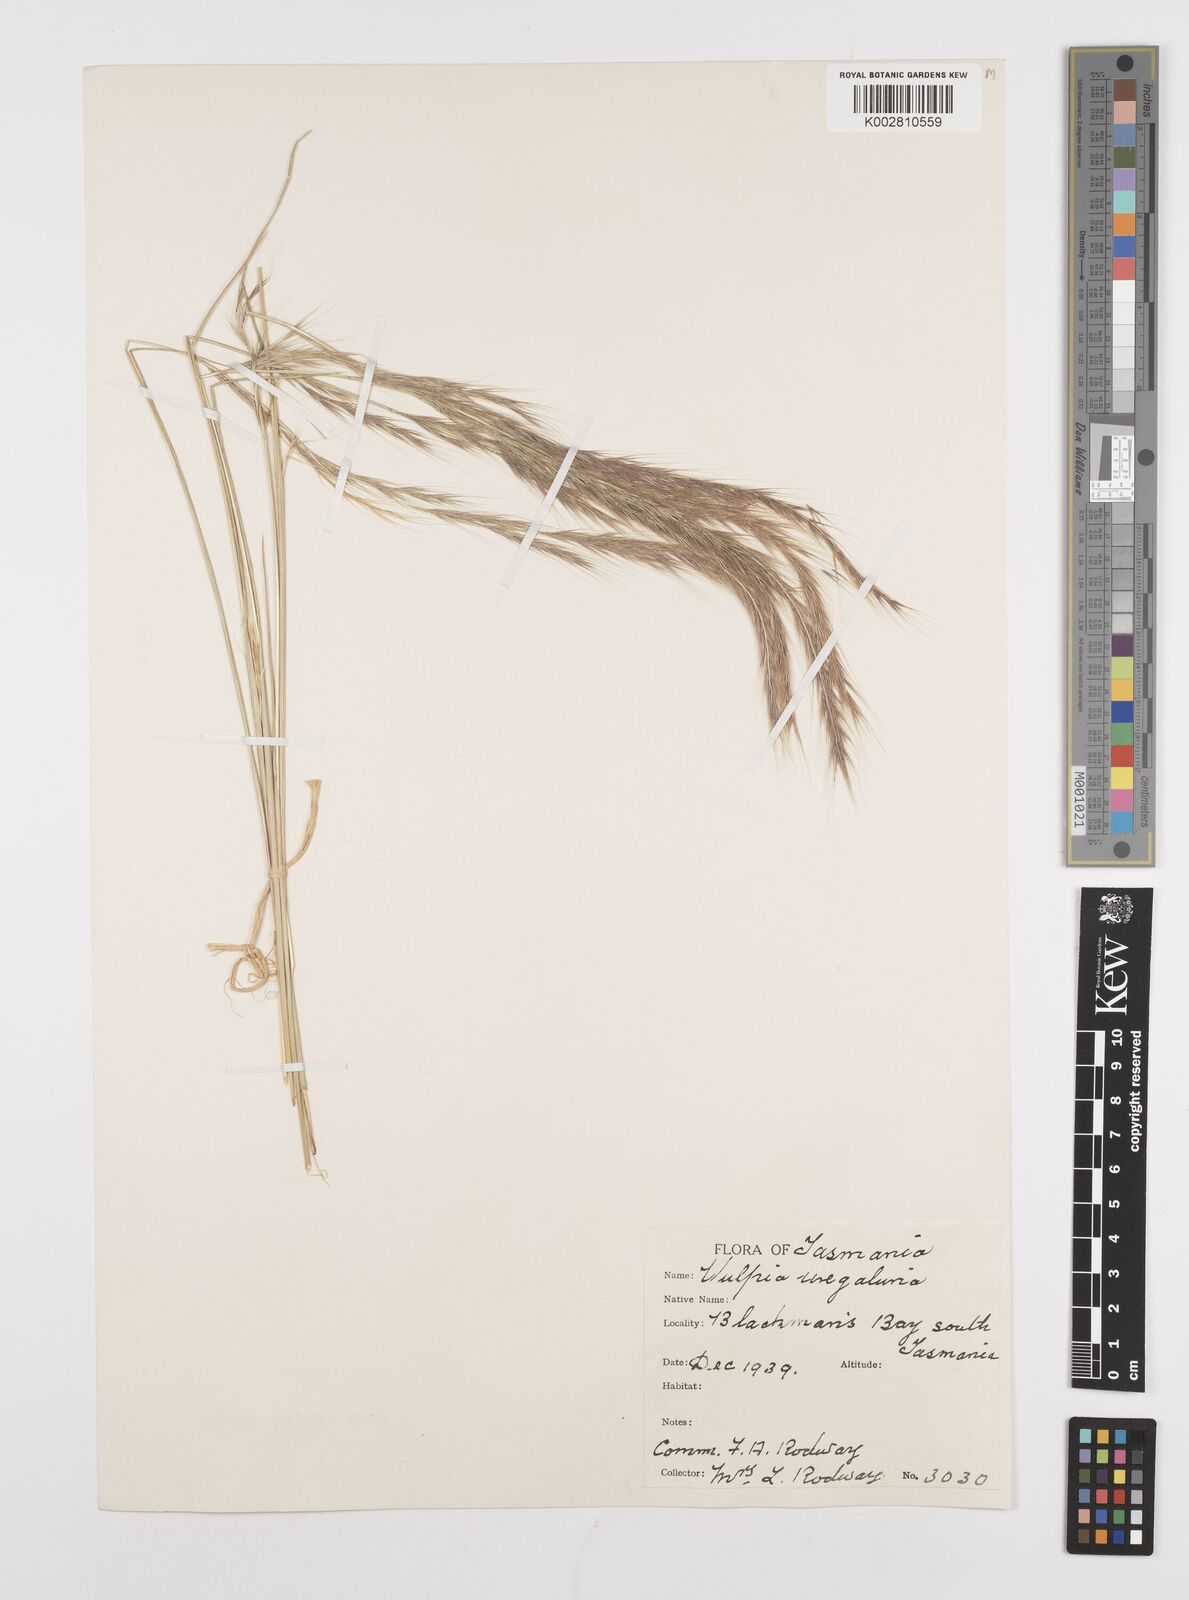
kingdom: Plantae
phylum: Tracheophyta
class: Liliopsida
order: Poales
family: Poaceae
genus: Festuca
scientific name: Festuca myuros
